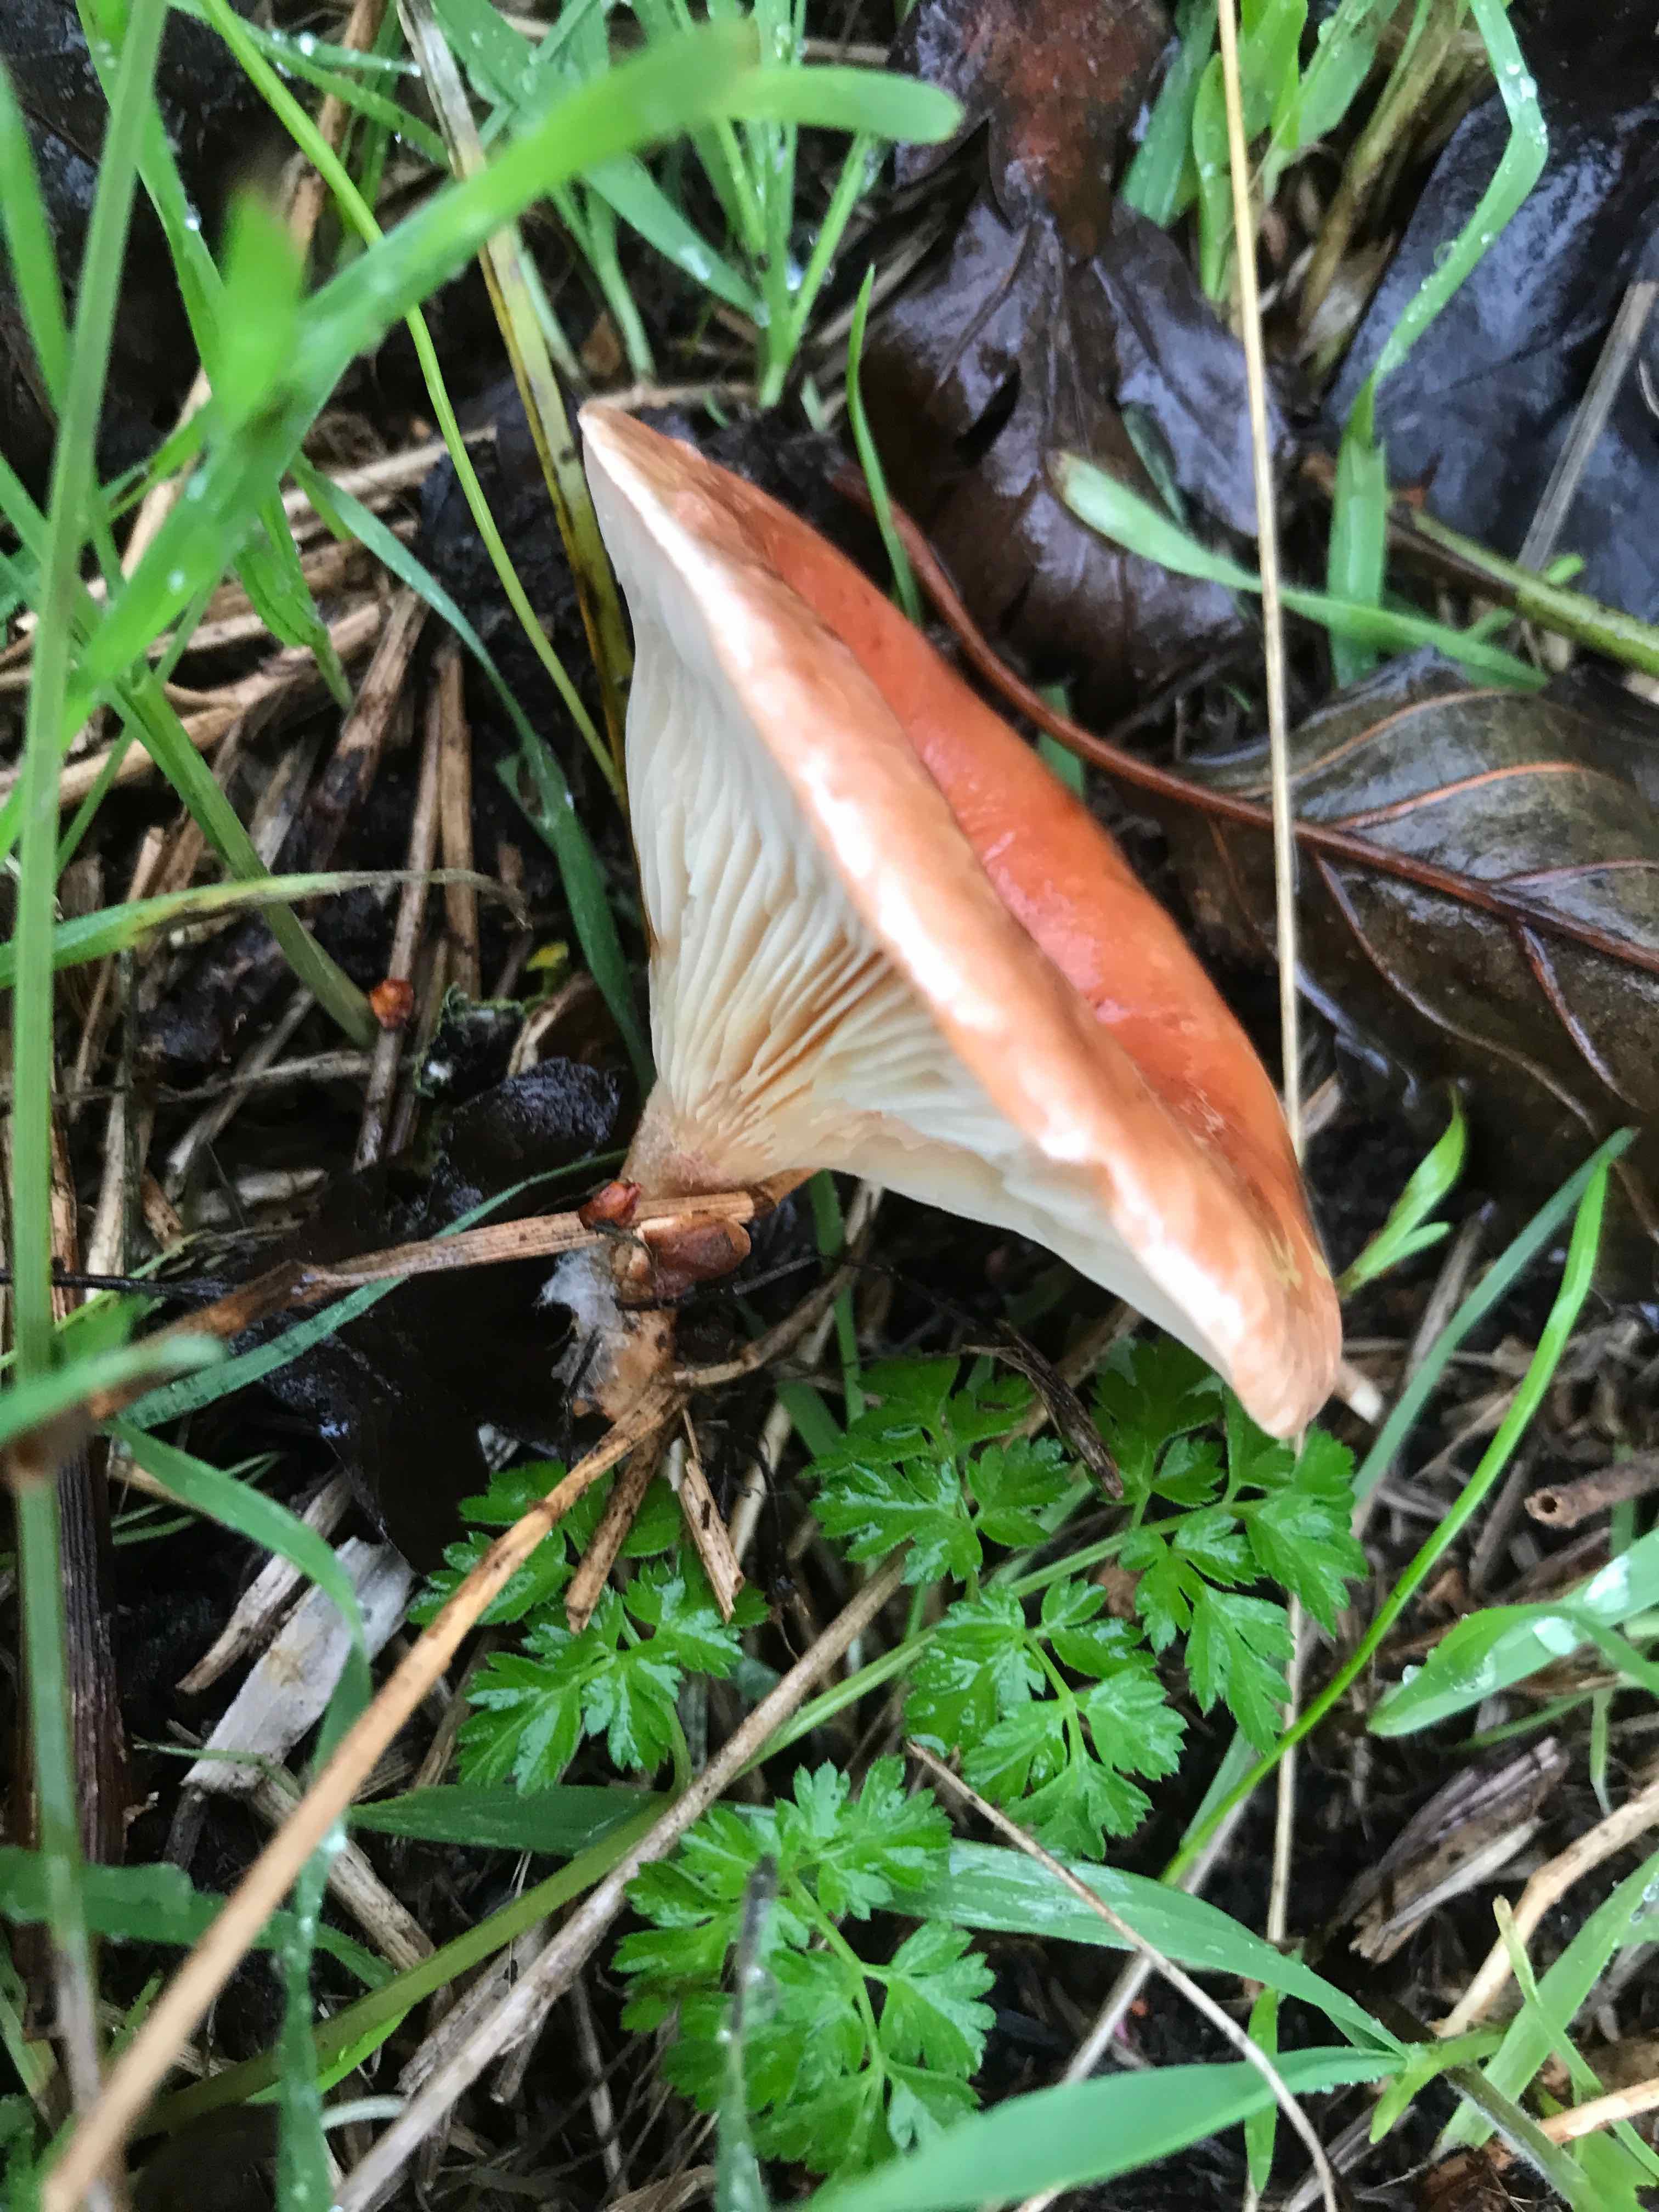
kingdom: Fungi
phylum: Basidiomycota
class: Agaricomycetes
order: Agaricales
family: Tricholomataceae
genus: Paralepista
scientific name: Paralepista flaccida
